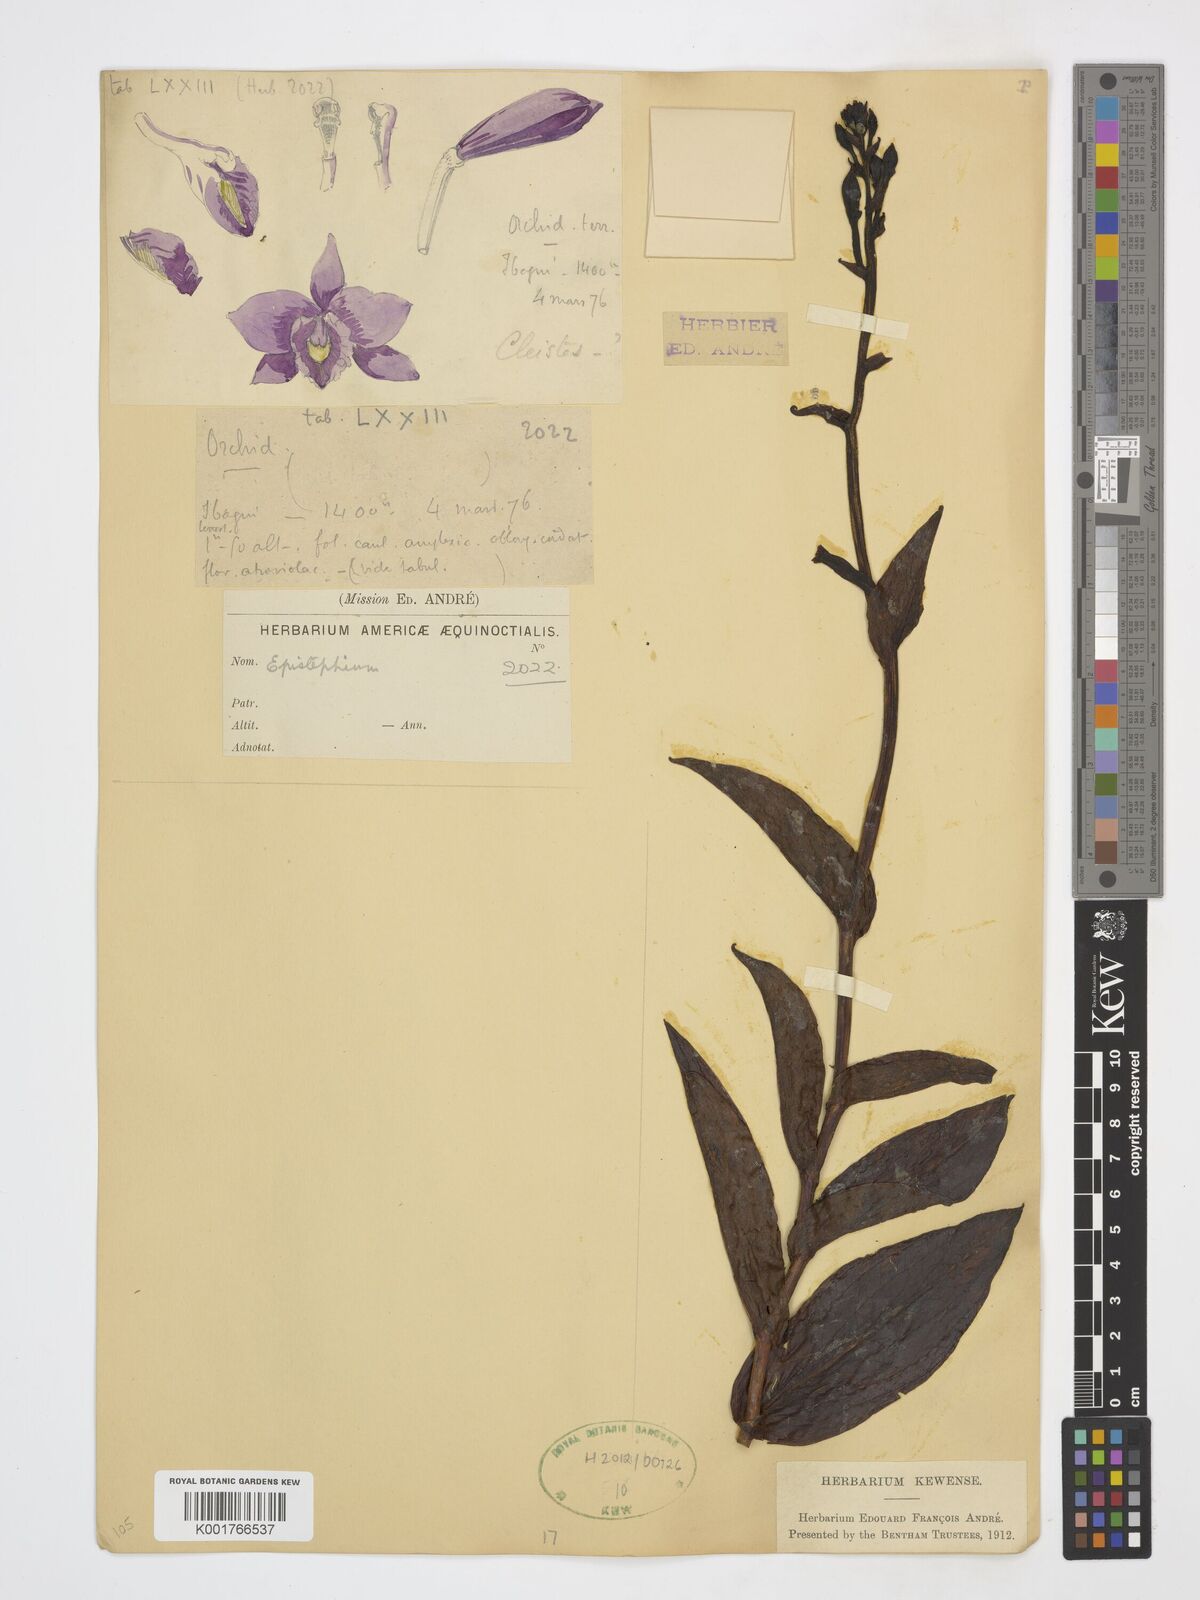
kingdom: Plantae
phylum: Tracheophyta
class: Liliopsida
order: Asparagales
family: Orchidaceae
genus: Epistephium
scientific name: Epistephium
